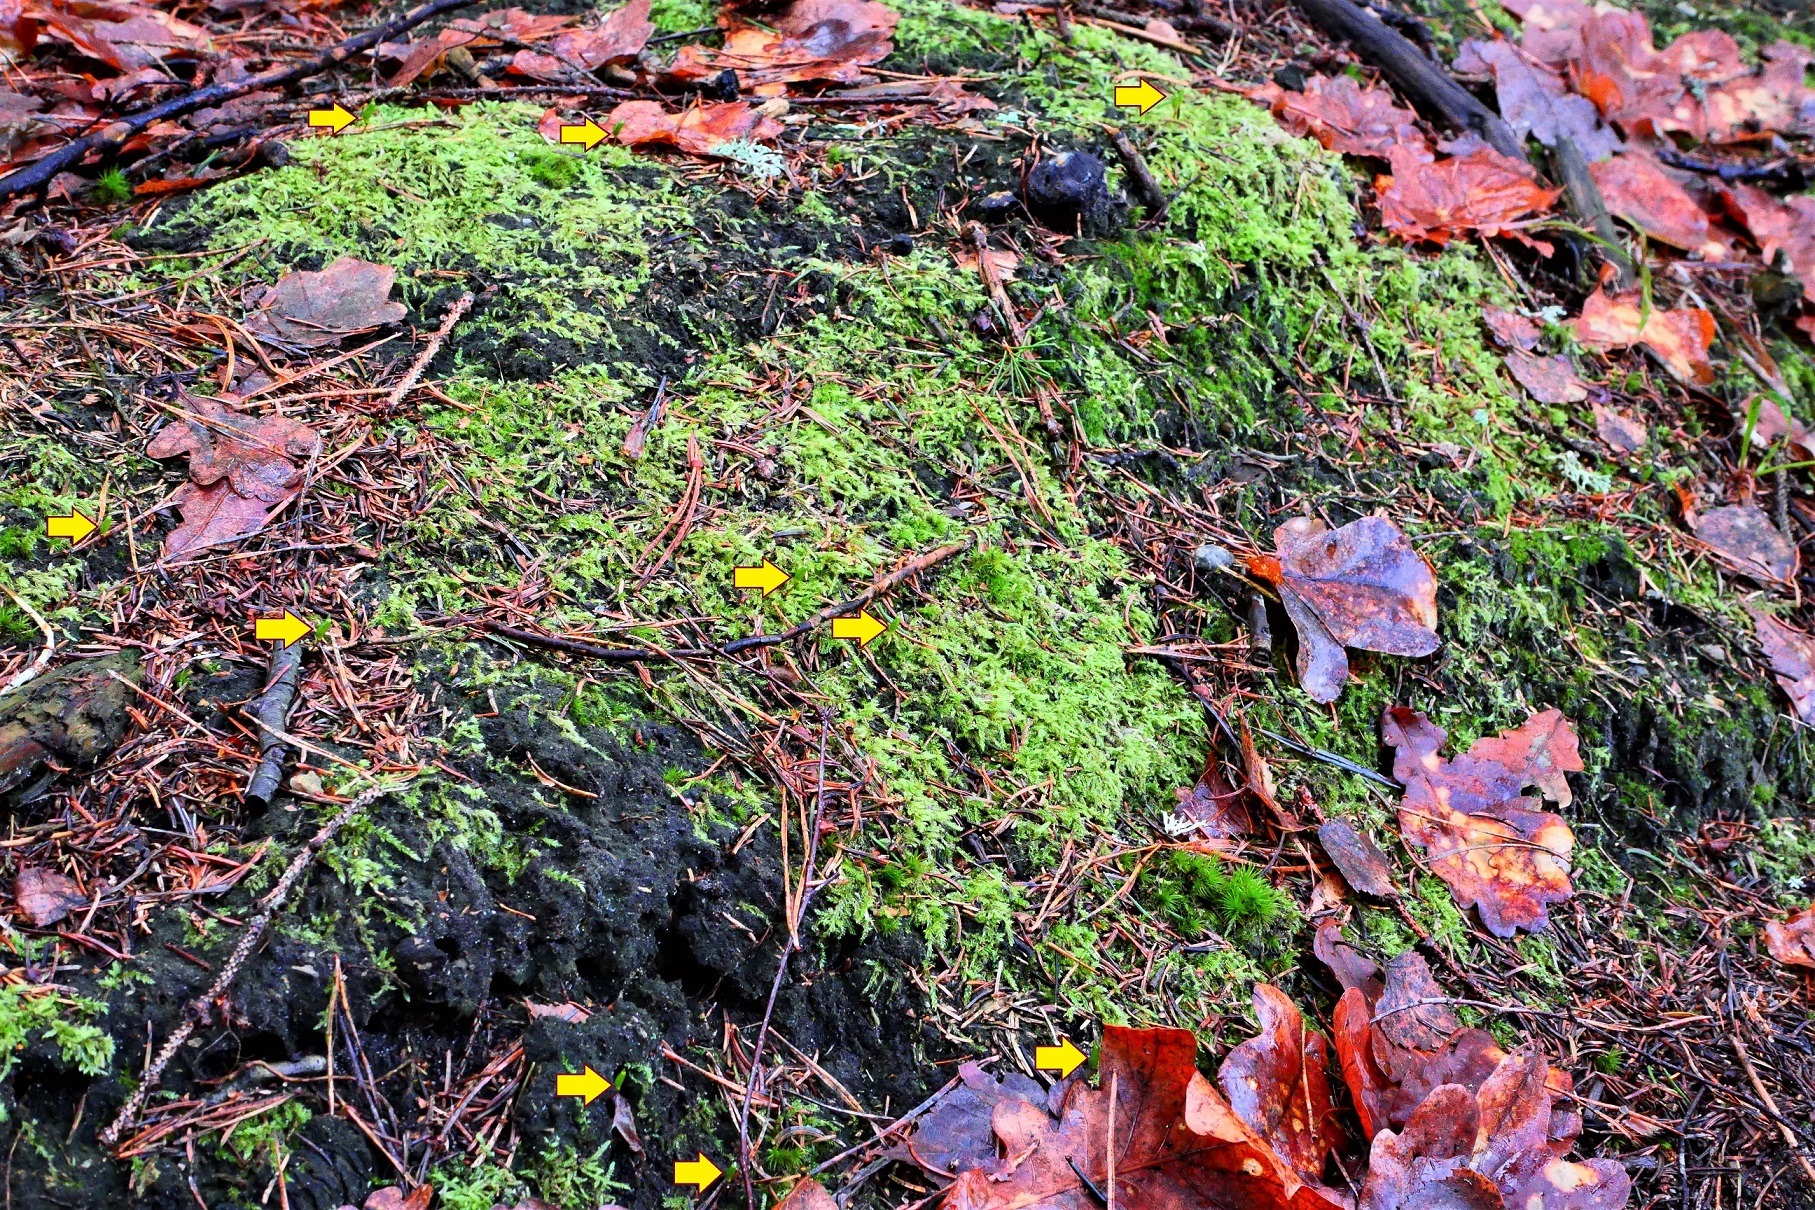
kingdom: Plantae
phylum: Bryophyta
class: Bryopsida
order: Buxbaumiales
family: Buxbaumiaceae
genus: Buxbaumia
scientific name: Buxbaumia viridis
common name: Grøn buxbaumia
